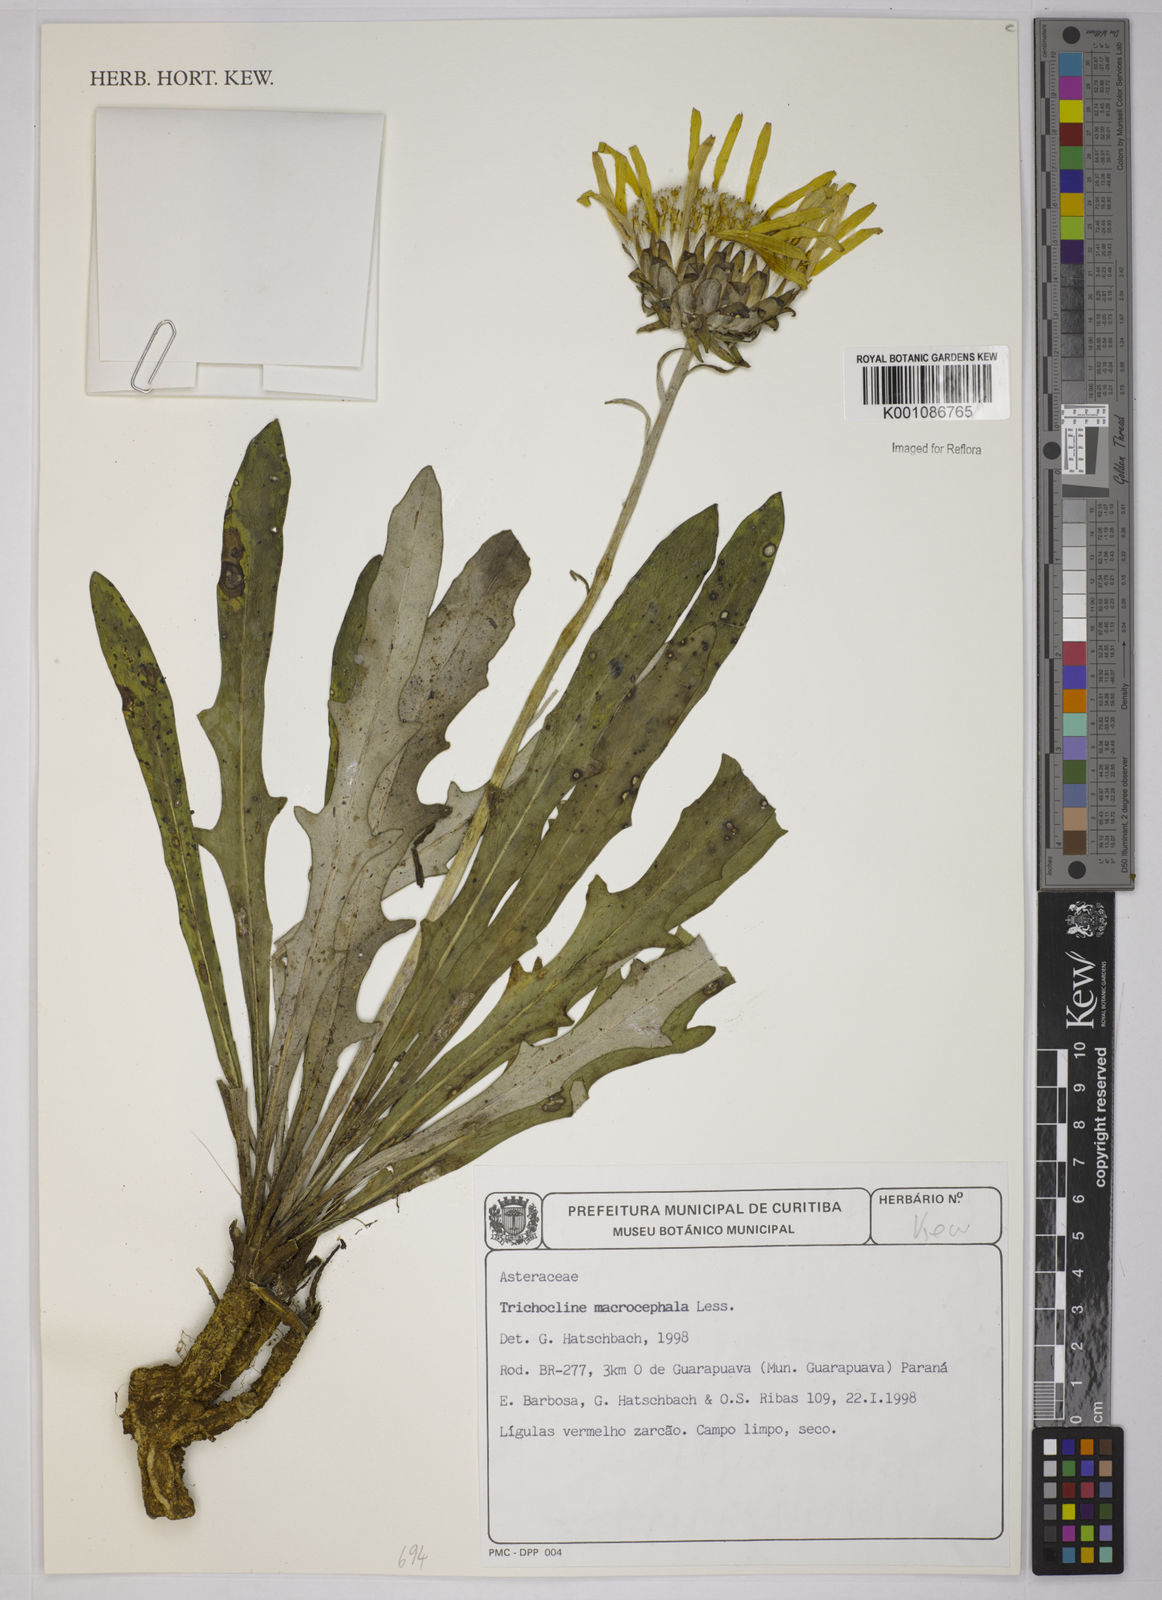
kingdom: Plantae
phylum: Tracheophyta
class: Magnoliopsida
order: Asterales
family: Asteraceae
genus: Trichocline
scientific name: Trichocline macrocephala
